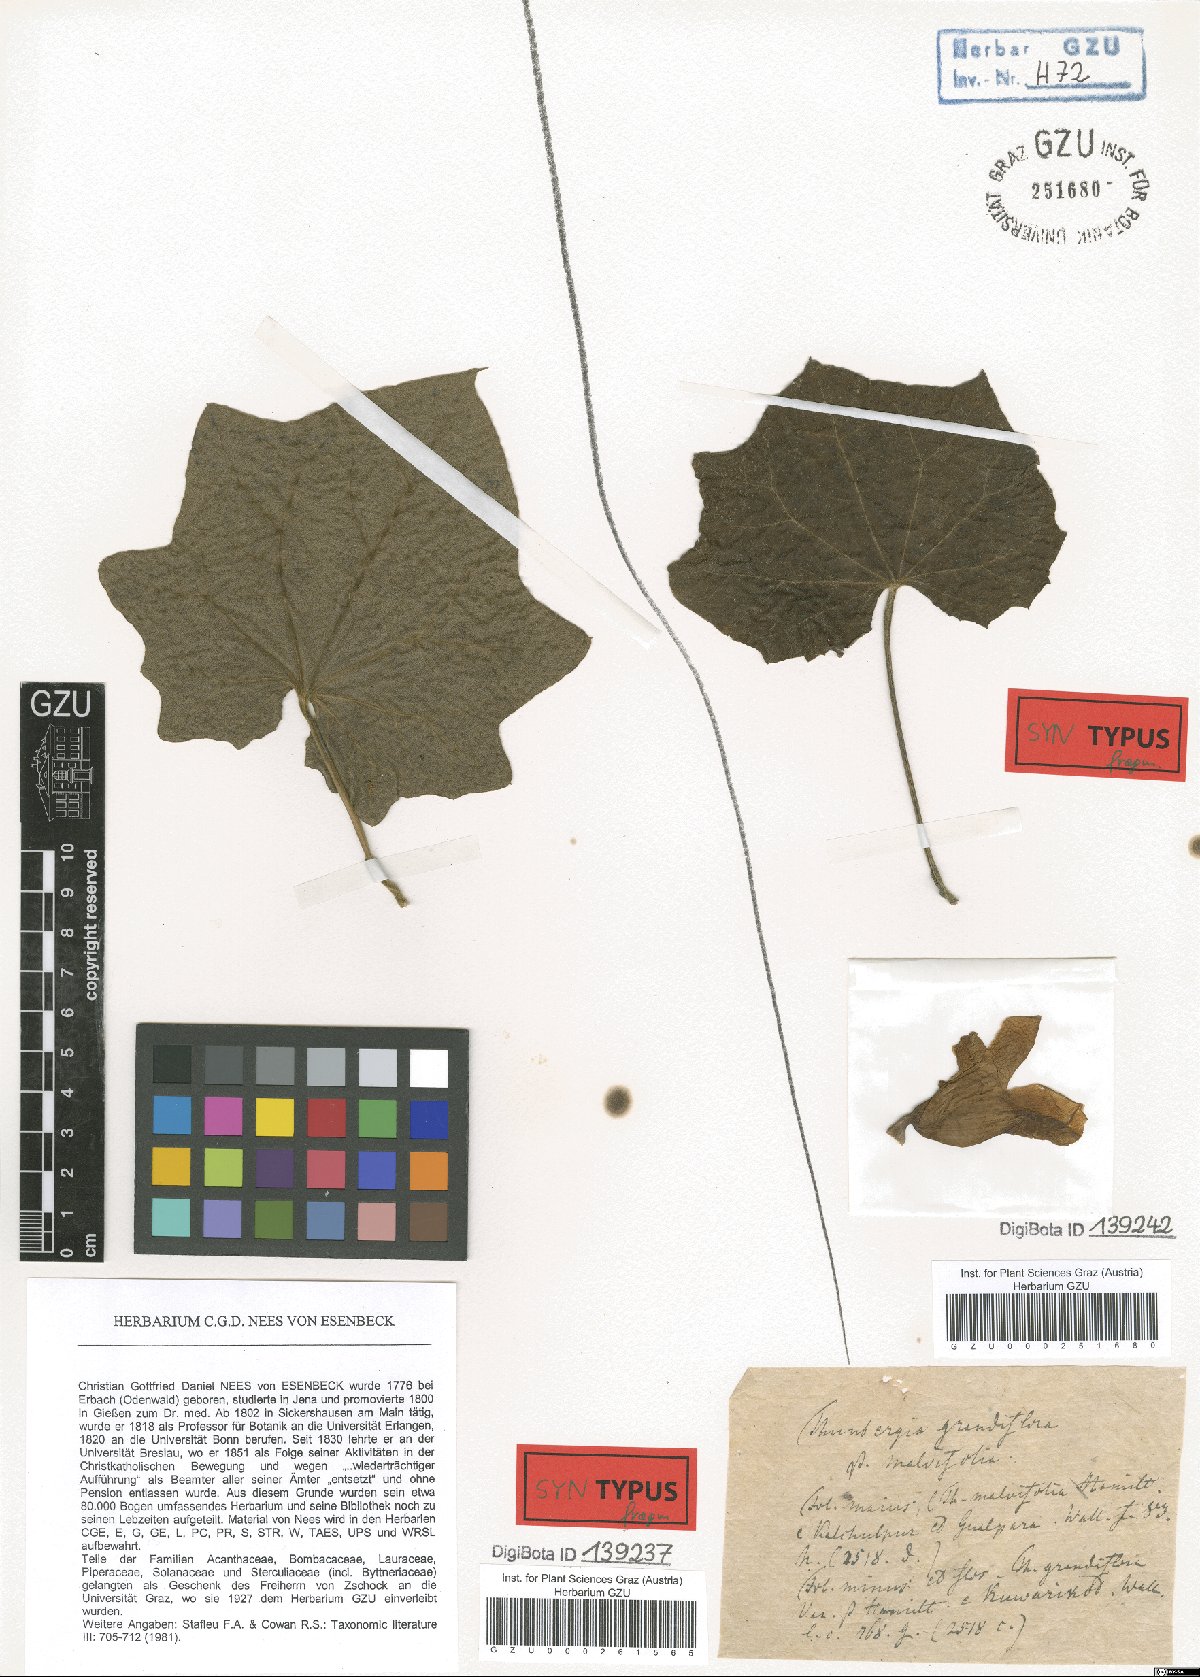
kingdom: Plantae
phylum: Tracheophyta
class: Magnoliopsida
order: Lamiales
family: Acanthaceae
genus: Thunbergia
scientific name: Thunbergia grandiflora
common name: Bengal trumpet
